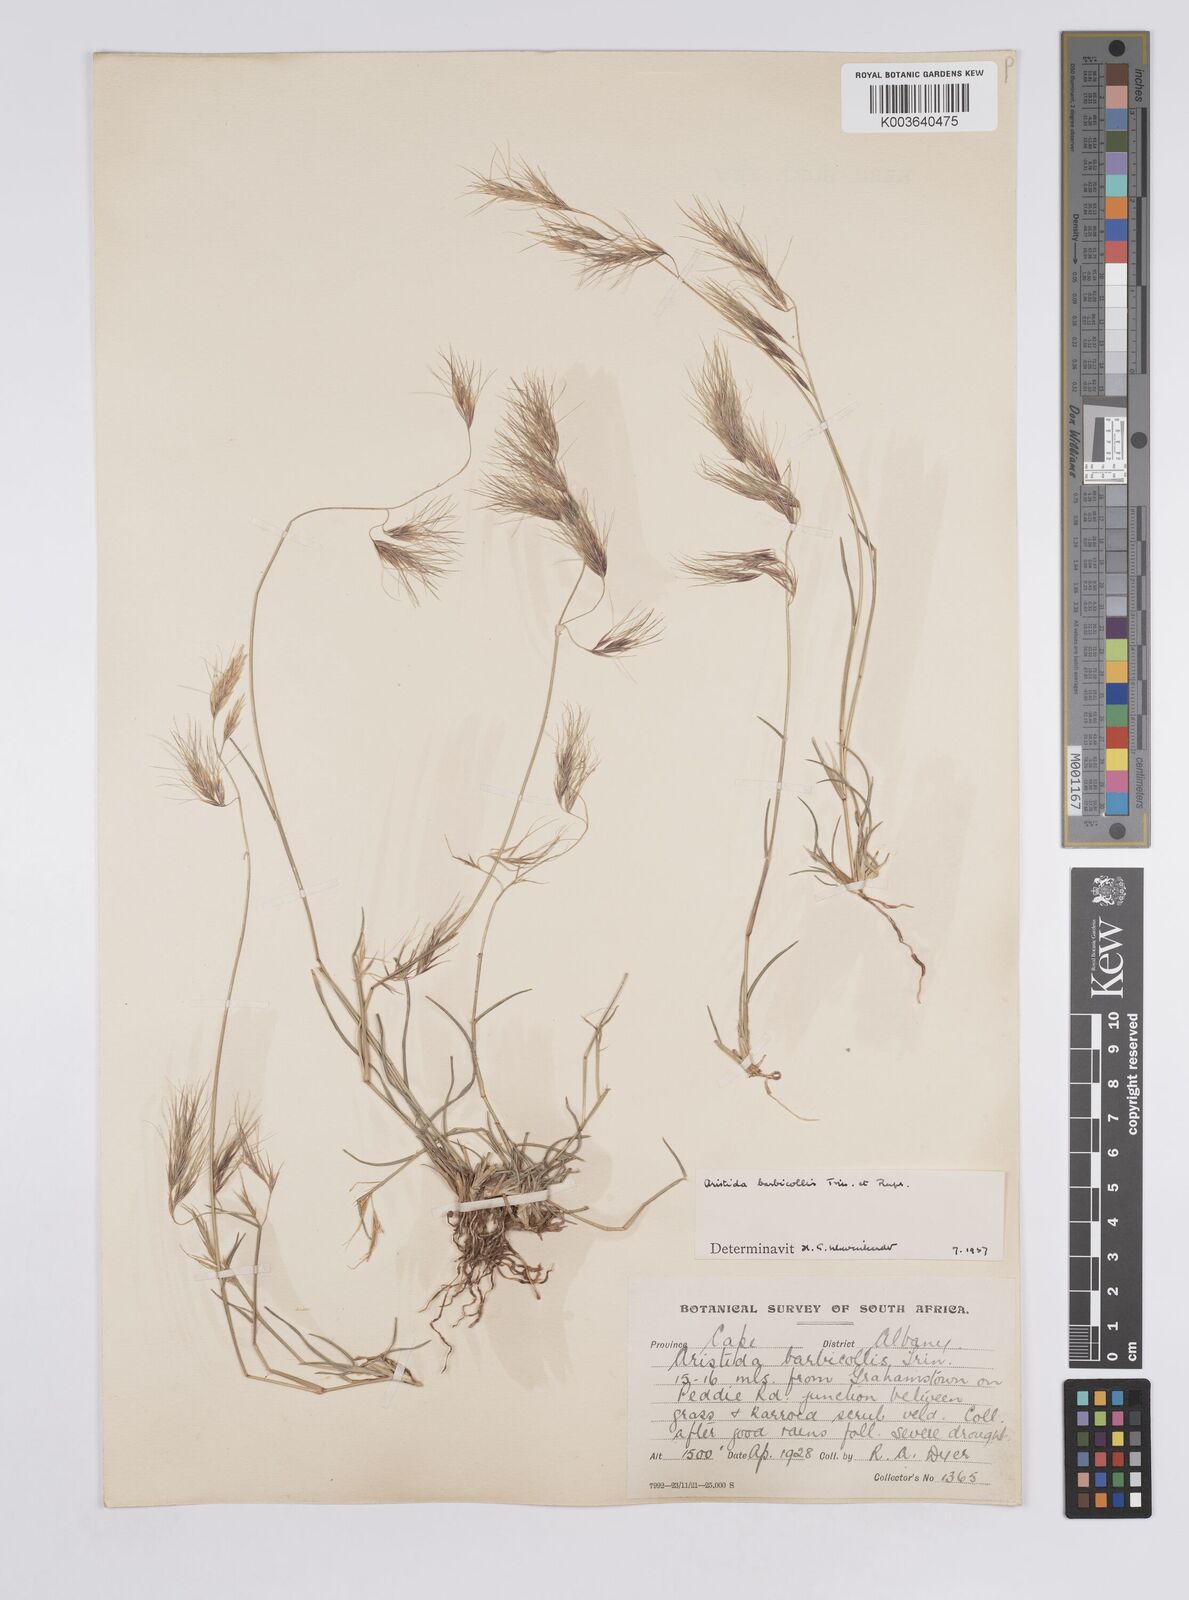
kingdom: Plantae
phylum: Tracheophyta
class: Liliopsida
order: Poales
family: Poaceae
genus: Aristida
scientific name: Aristida barbicollis
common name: Spreading prickle grass
